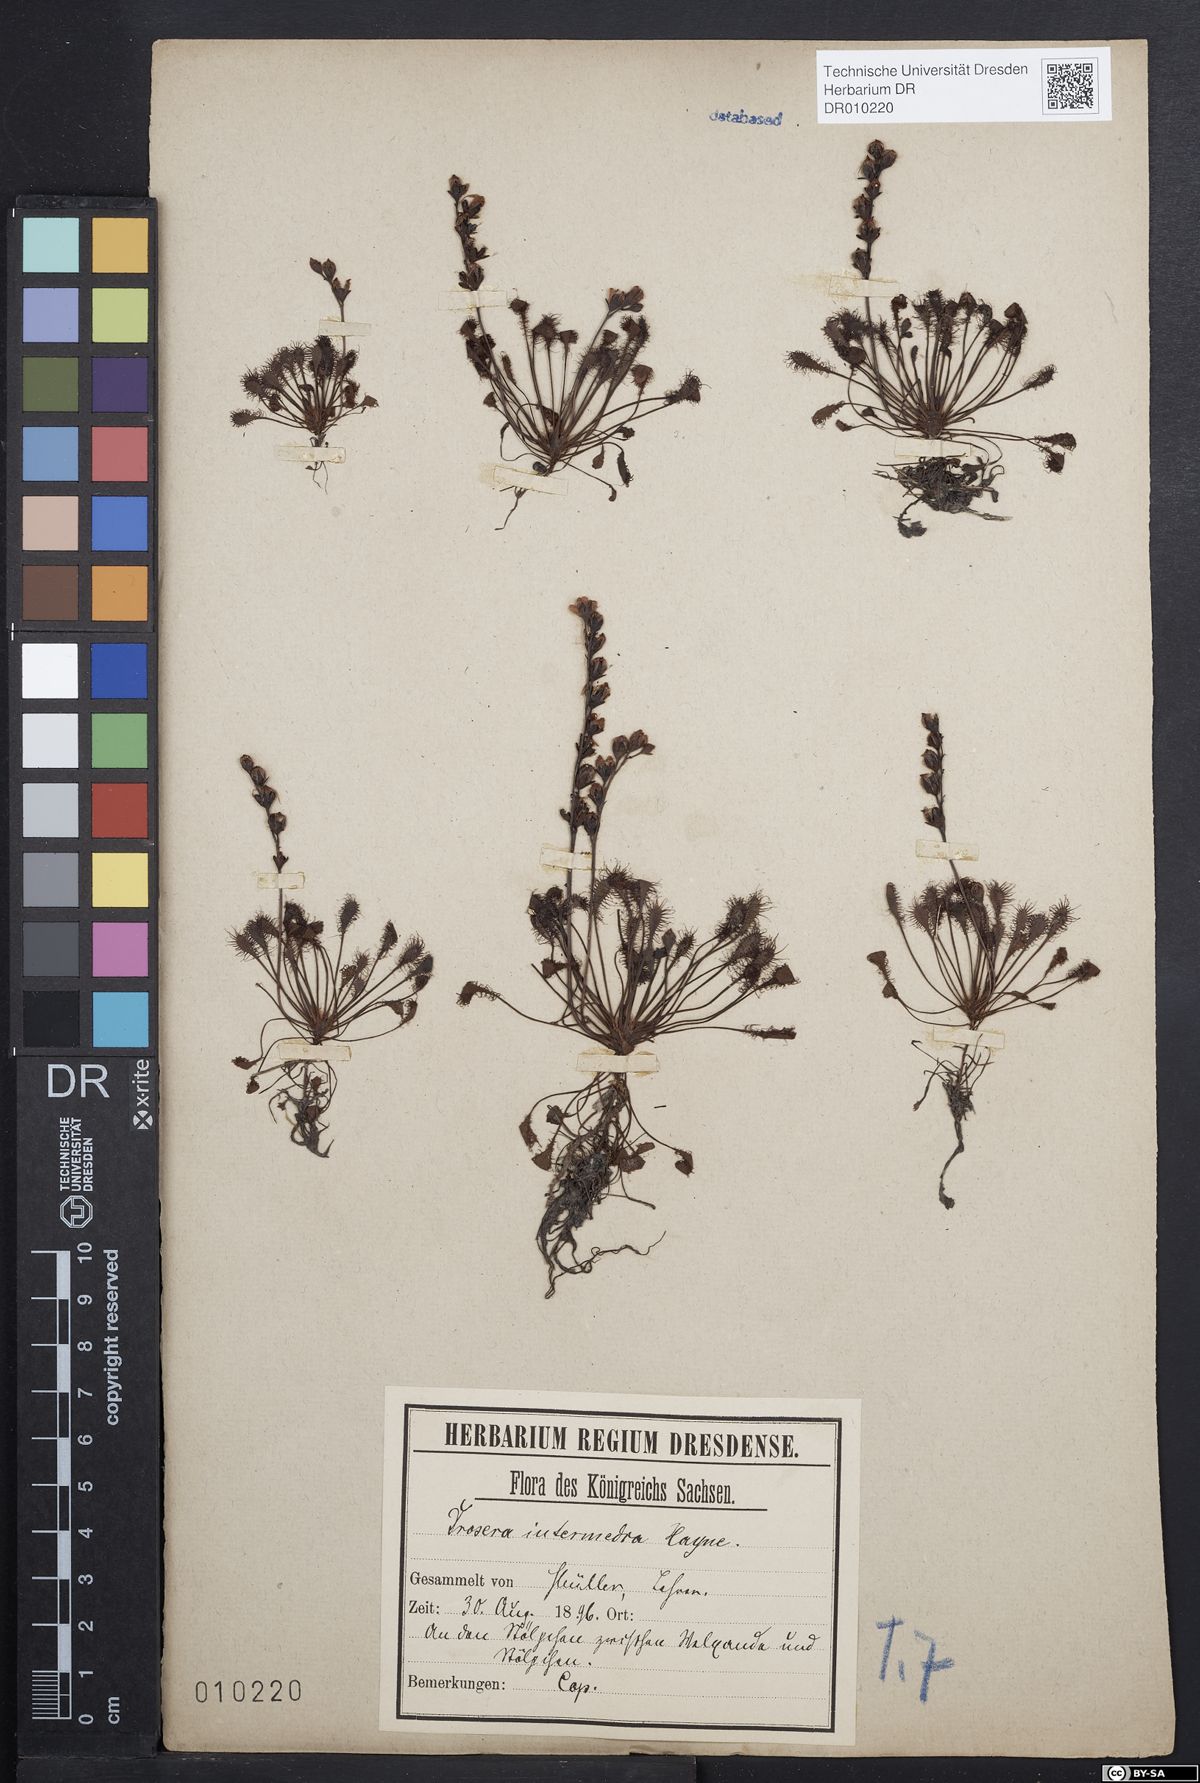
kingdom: Plantae
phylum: Tracheophyta
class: Magnoliopsida
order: Caryophyllales
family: Droseraceae
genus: Drosera
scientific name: Drosera intermedia
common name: Oblong-leaved sundew
